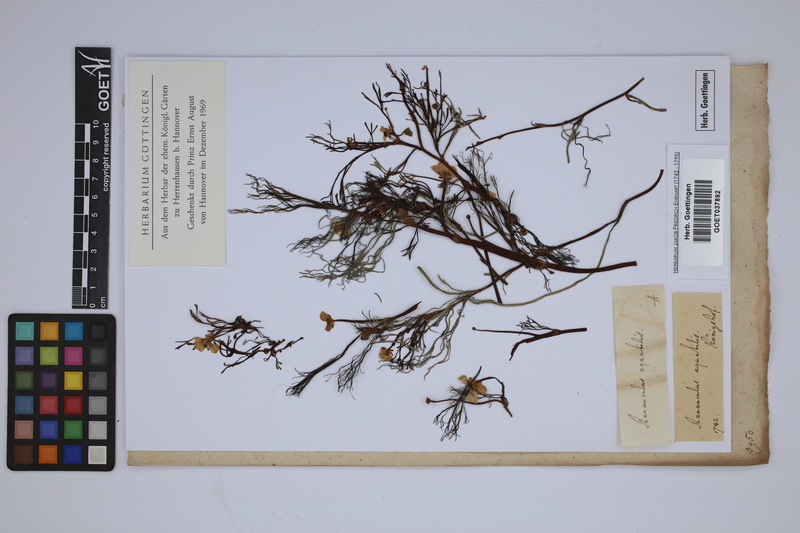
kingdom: Plantae
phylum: Tracheophyta
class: Magnoliopsida
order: Ranunculales
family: Ranunculaceae
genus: Ranunculus
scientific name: Ranunculus aquatilis
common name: Common water-crowfoot
